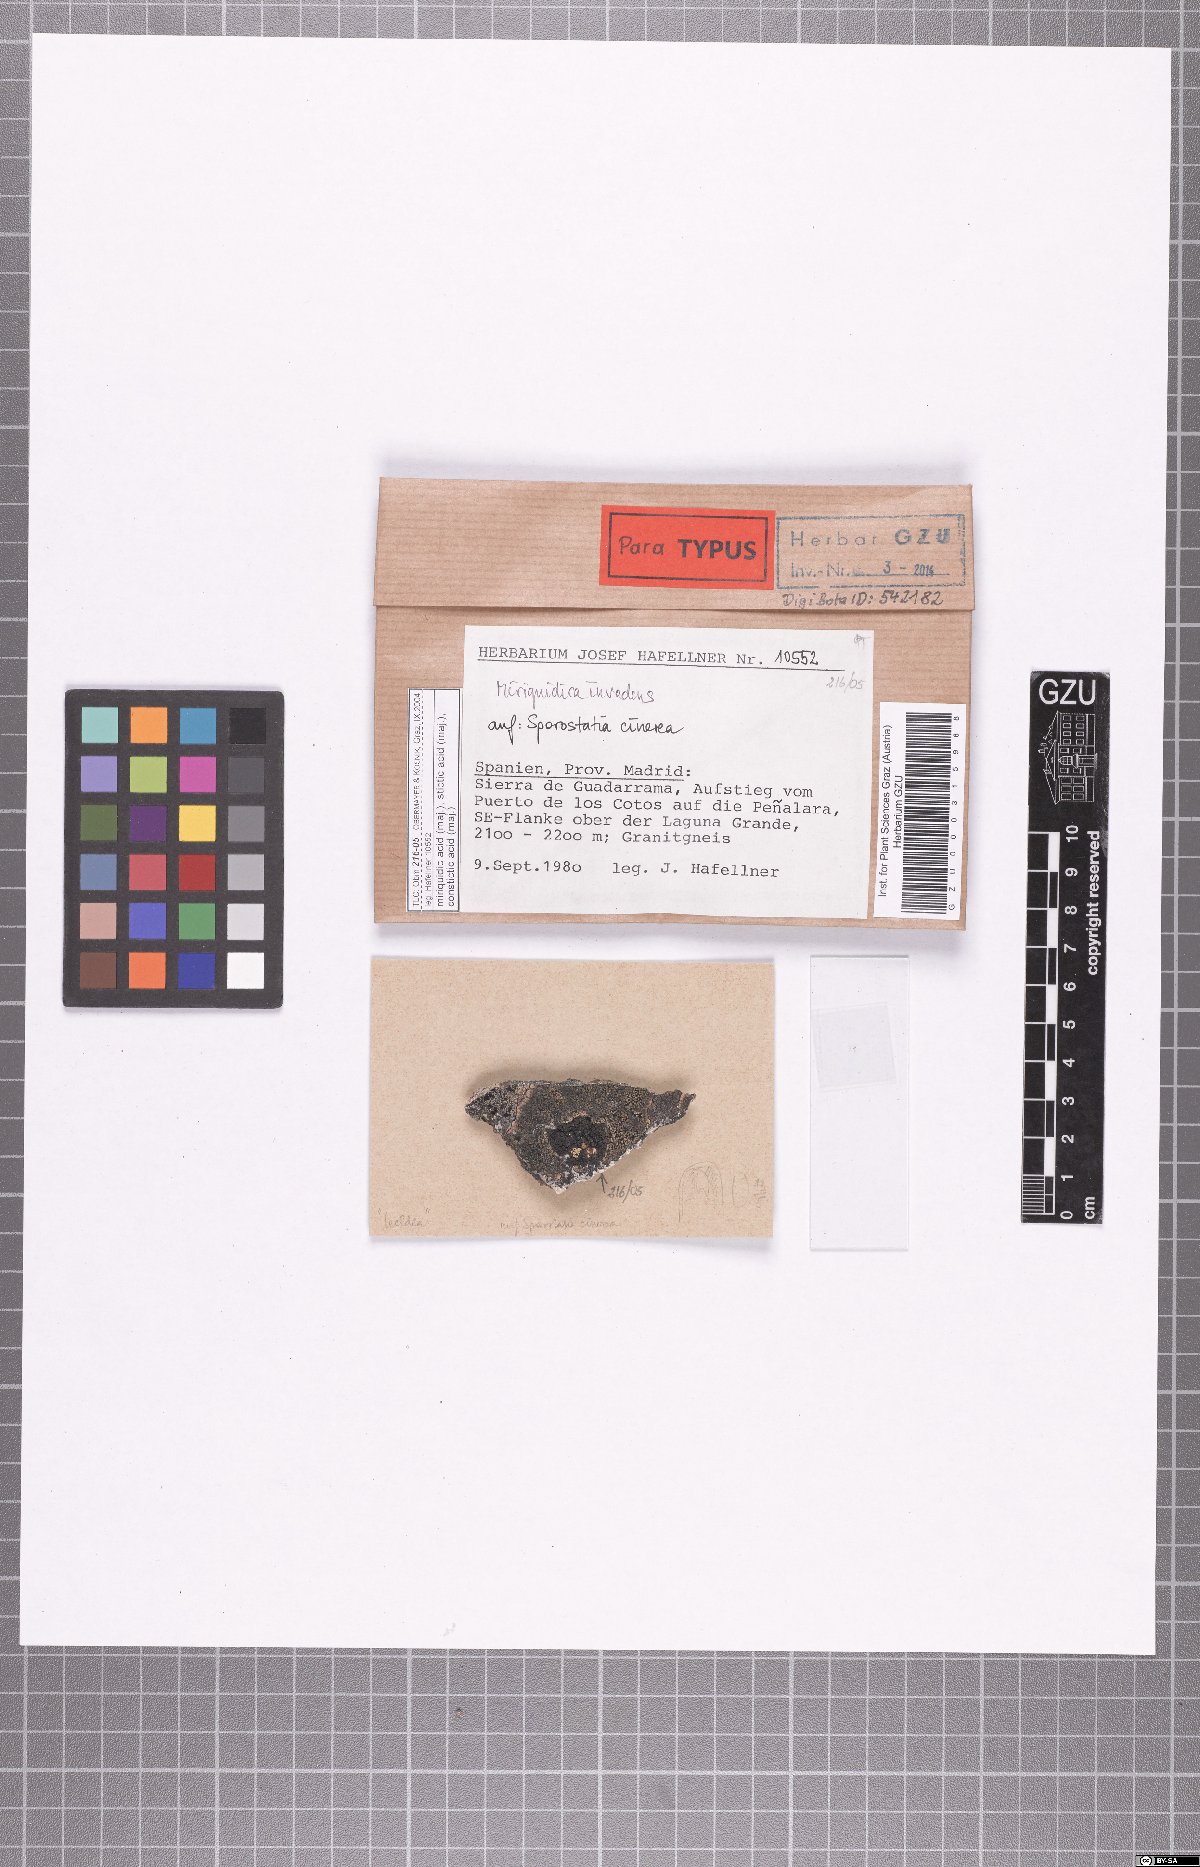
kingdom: Fungi
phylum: Ascomycota
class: Lecanoromycetes
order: Lecanorales
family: Lecanoraceae
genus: Miriquidica
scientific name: Miriquidica invadens
